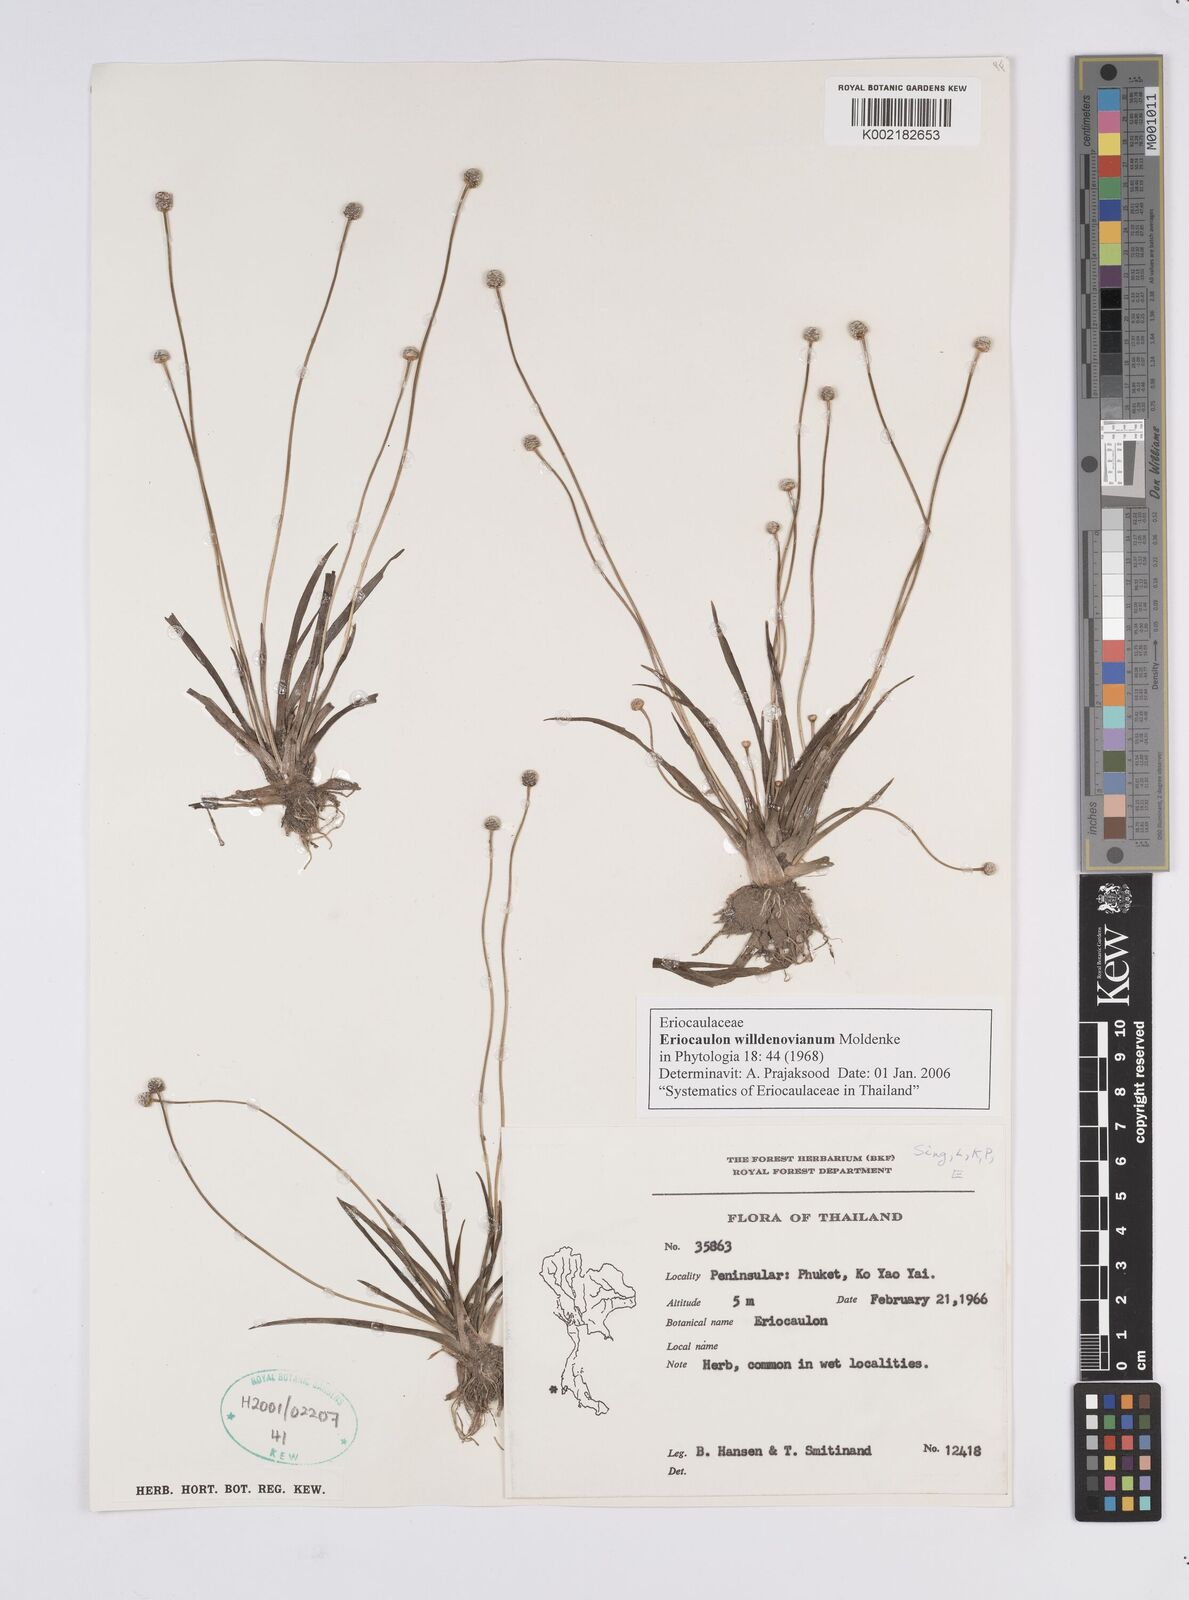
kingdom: Plantae
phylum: Tracheophyta
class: Liliopsida
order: Poales
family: Eriocaulaceae
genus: Eriocaulon
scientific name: Eriocaulon willdenovianum
